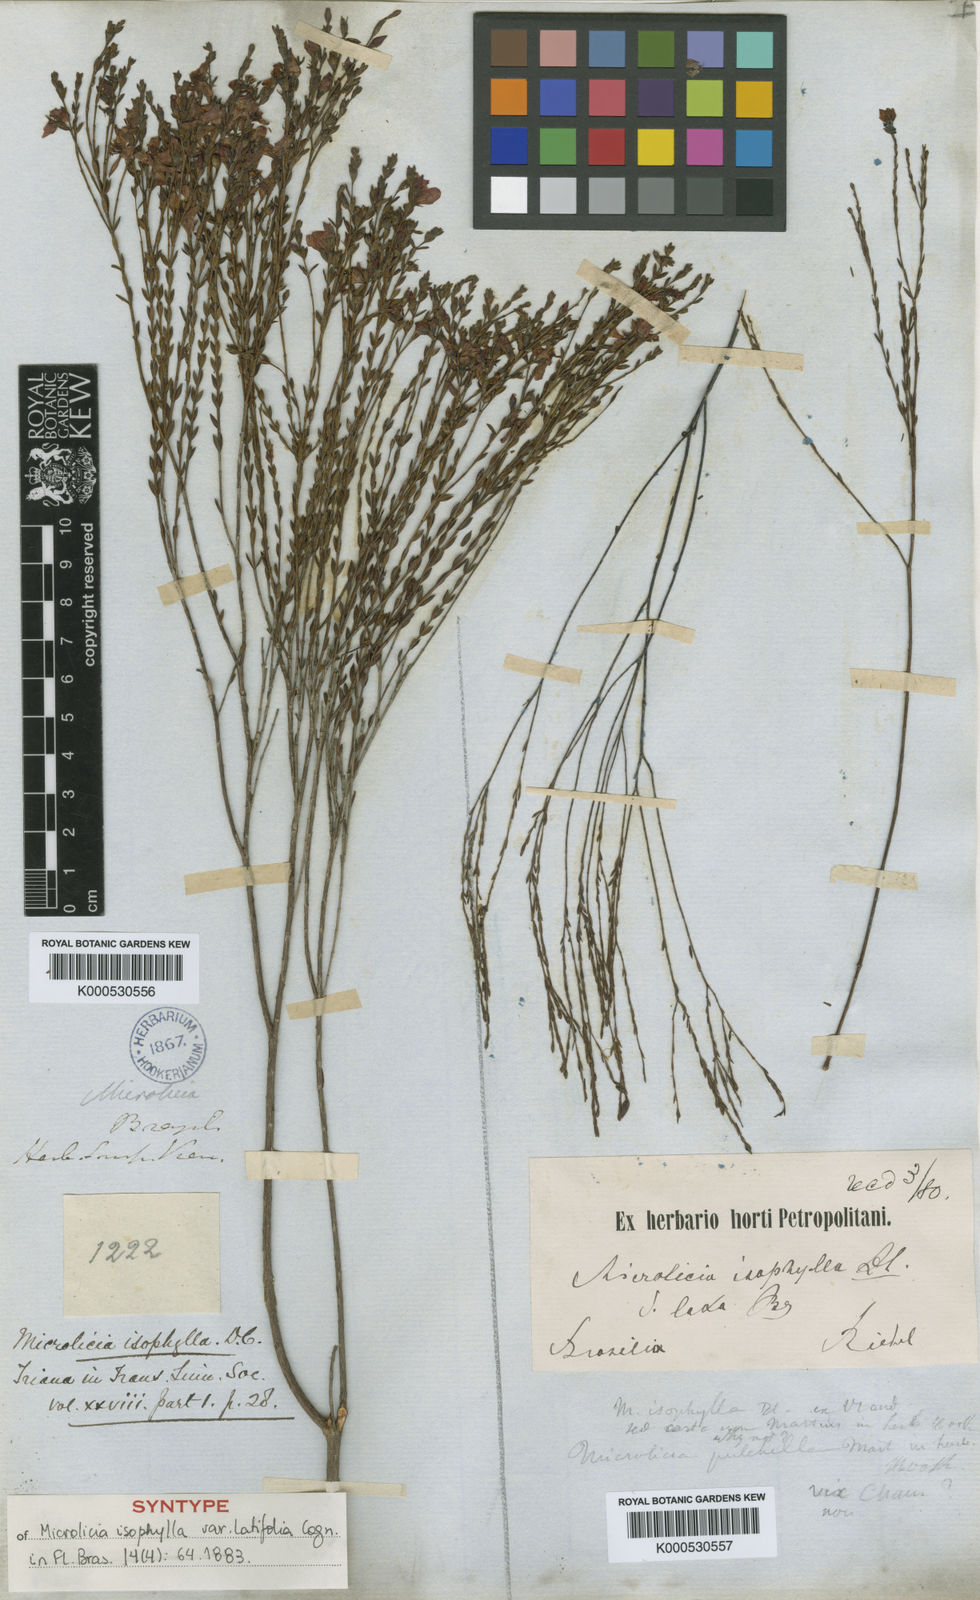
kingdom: Plantae
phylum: Tracheophyta
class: Magnoliopsida
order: Myrtales
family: Melastomataceae
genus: Microlicia
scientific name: Microlicia isophylla
